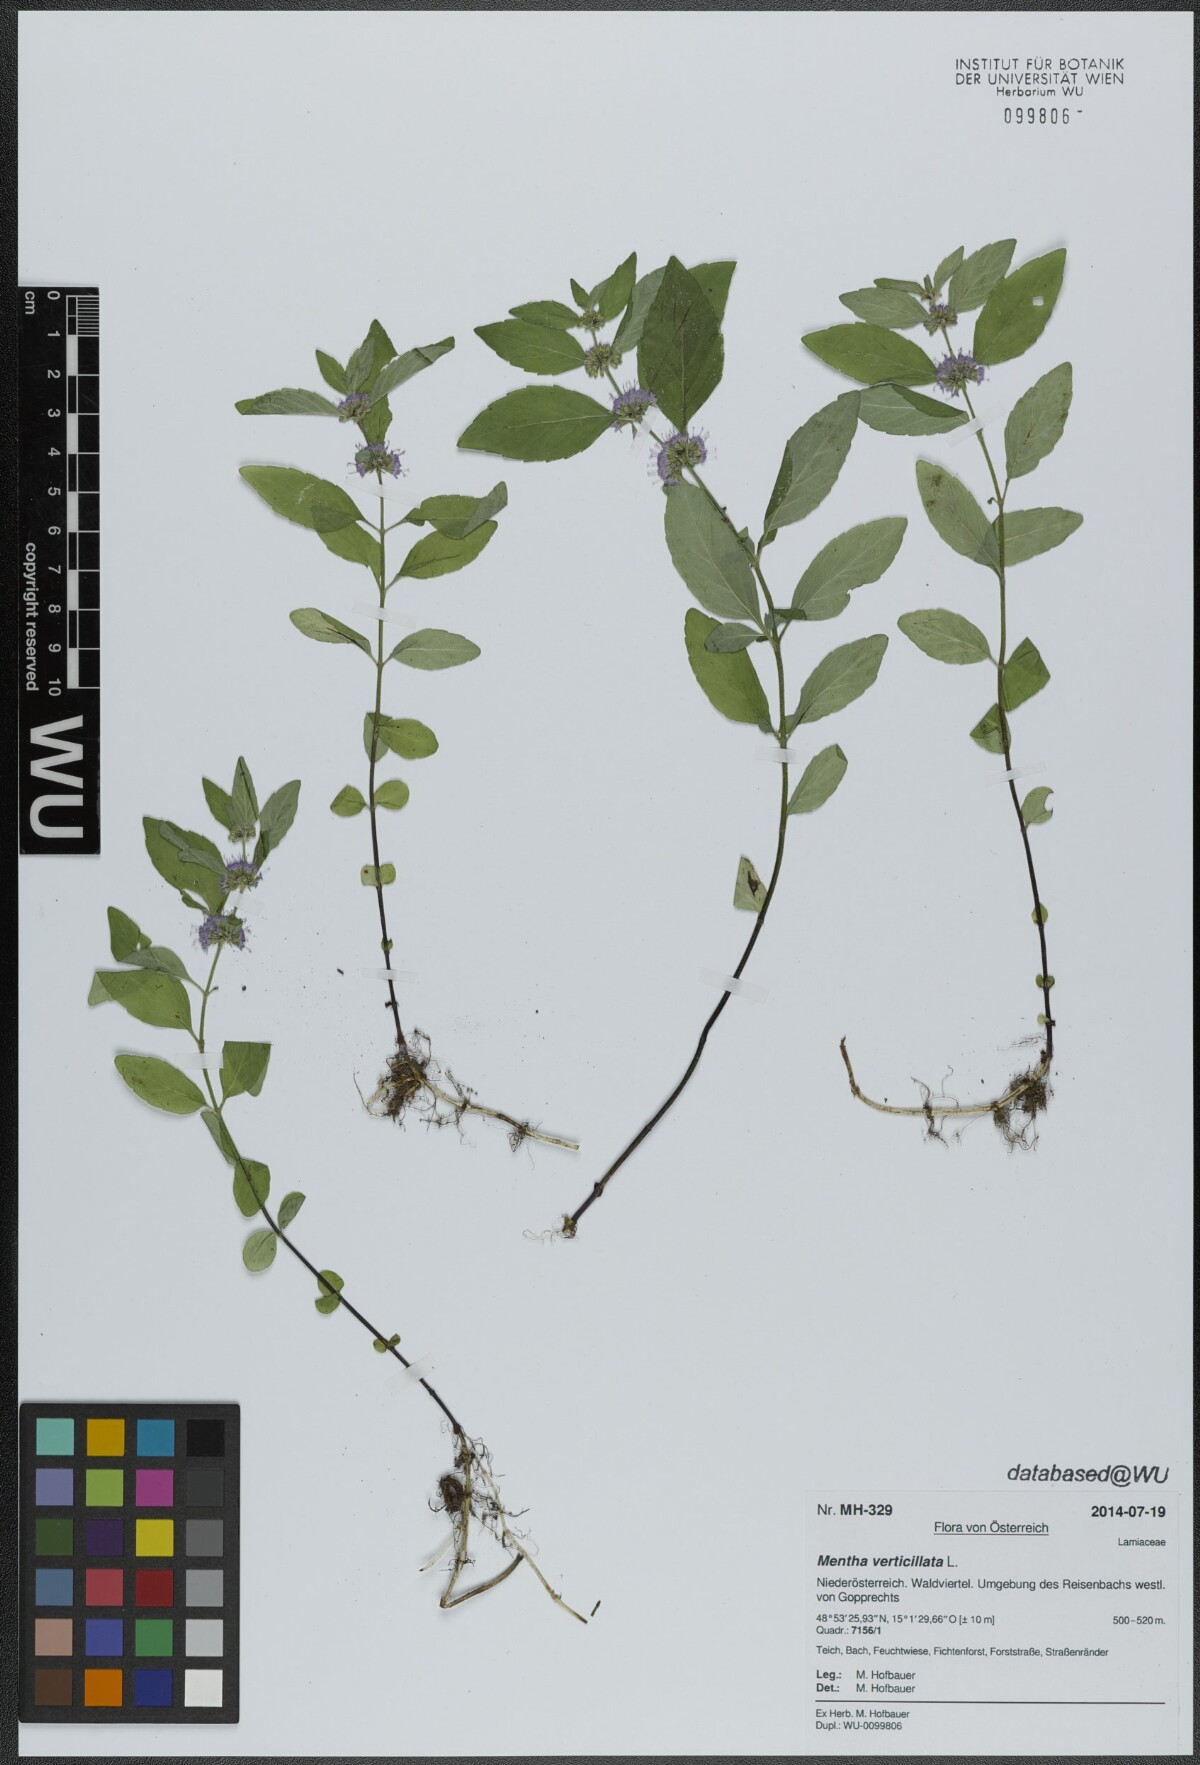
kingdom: Plantae
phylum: Tracheophyta
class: Magnoliopsida
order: Lamiales
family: Lamiaceae
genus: Mentha
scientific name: Mentha verticillata
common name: Mint
